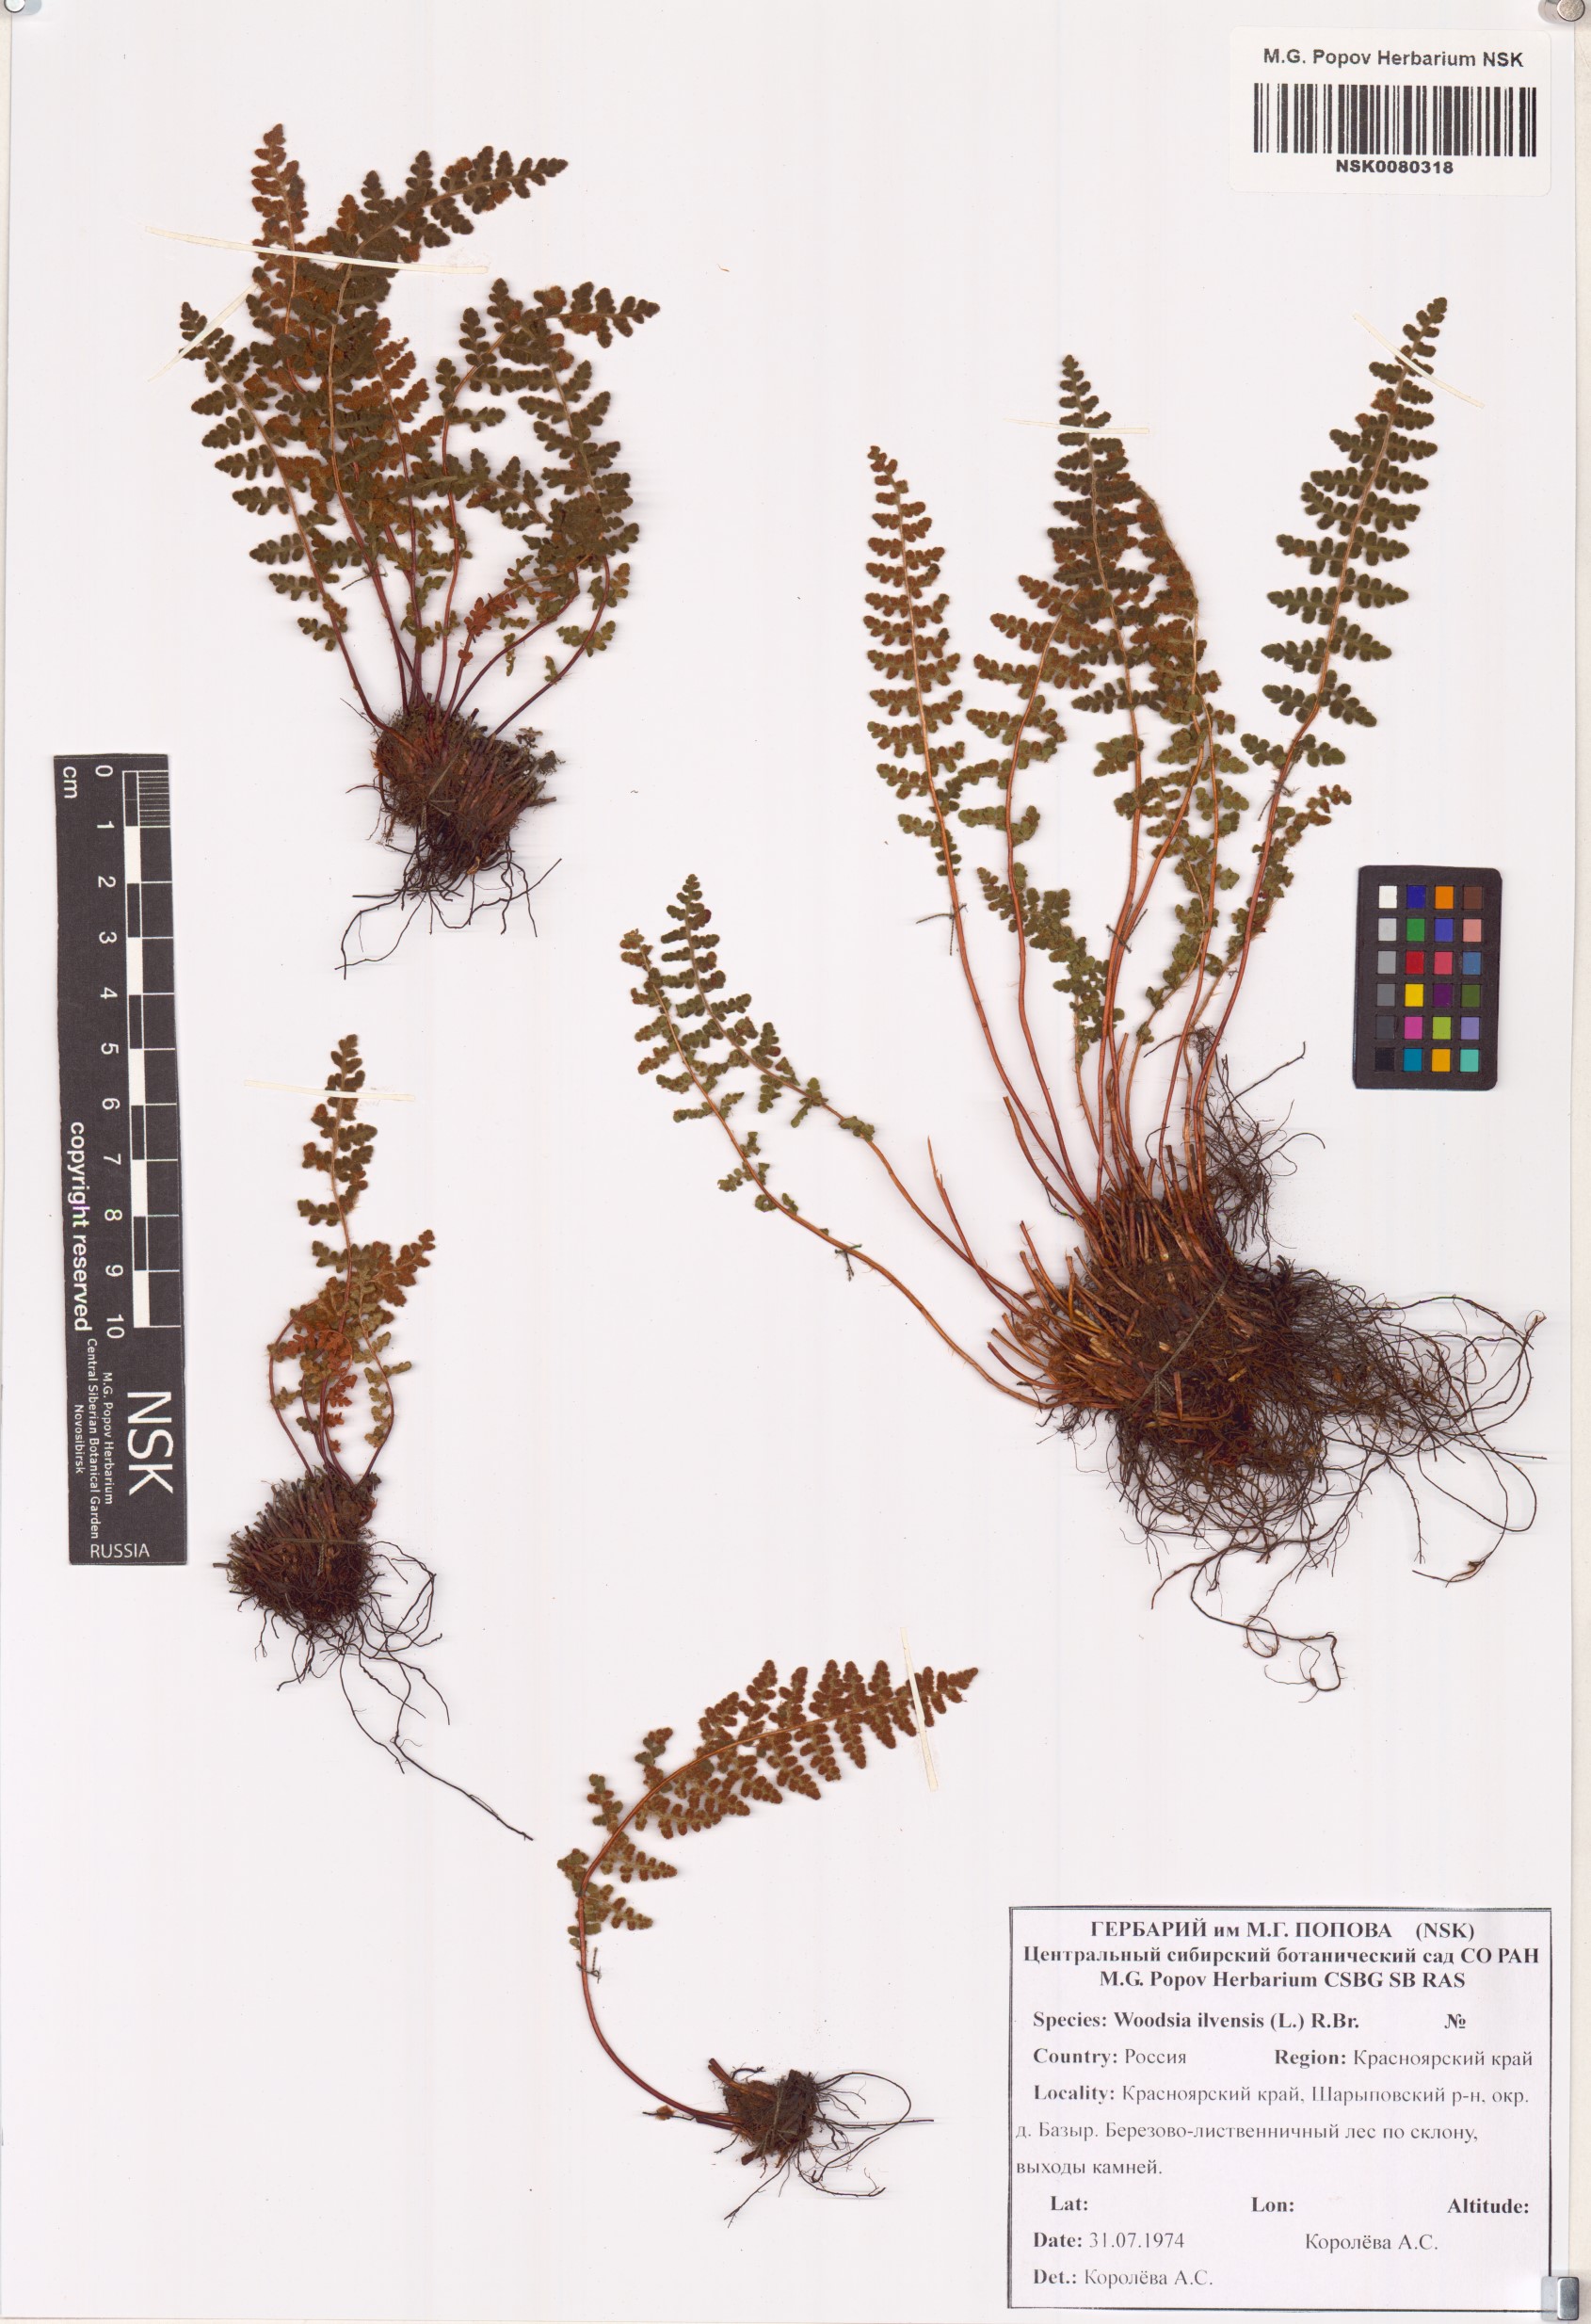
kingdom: Plantae
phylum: Tracheophyta
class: Polypodiopsida
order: Polypodiales
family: Woodsiaceae
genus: Woodsia
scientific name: Woodsia ilvensis
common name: Fragrant woodsia
